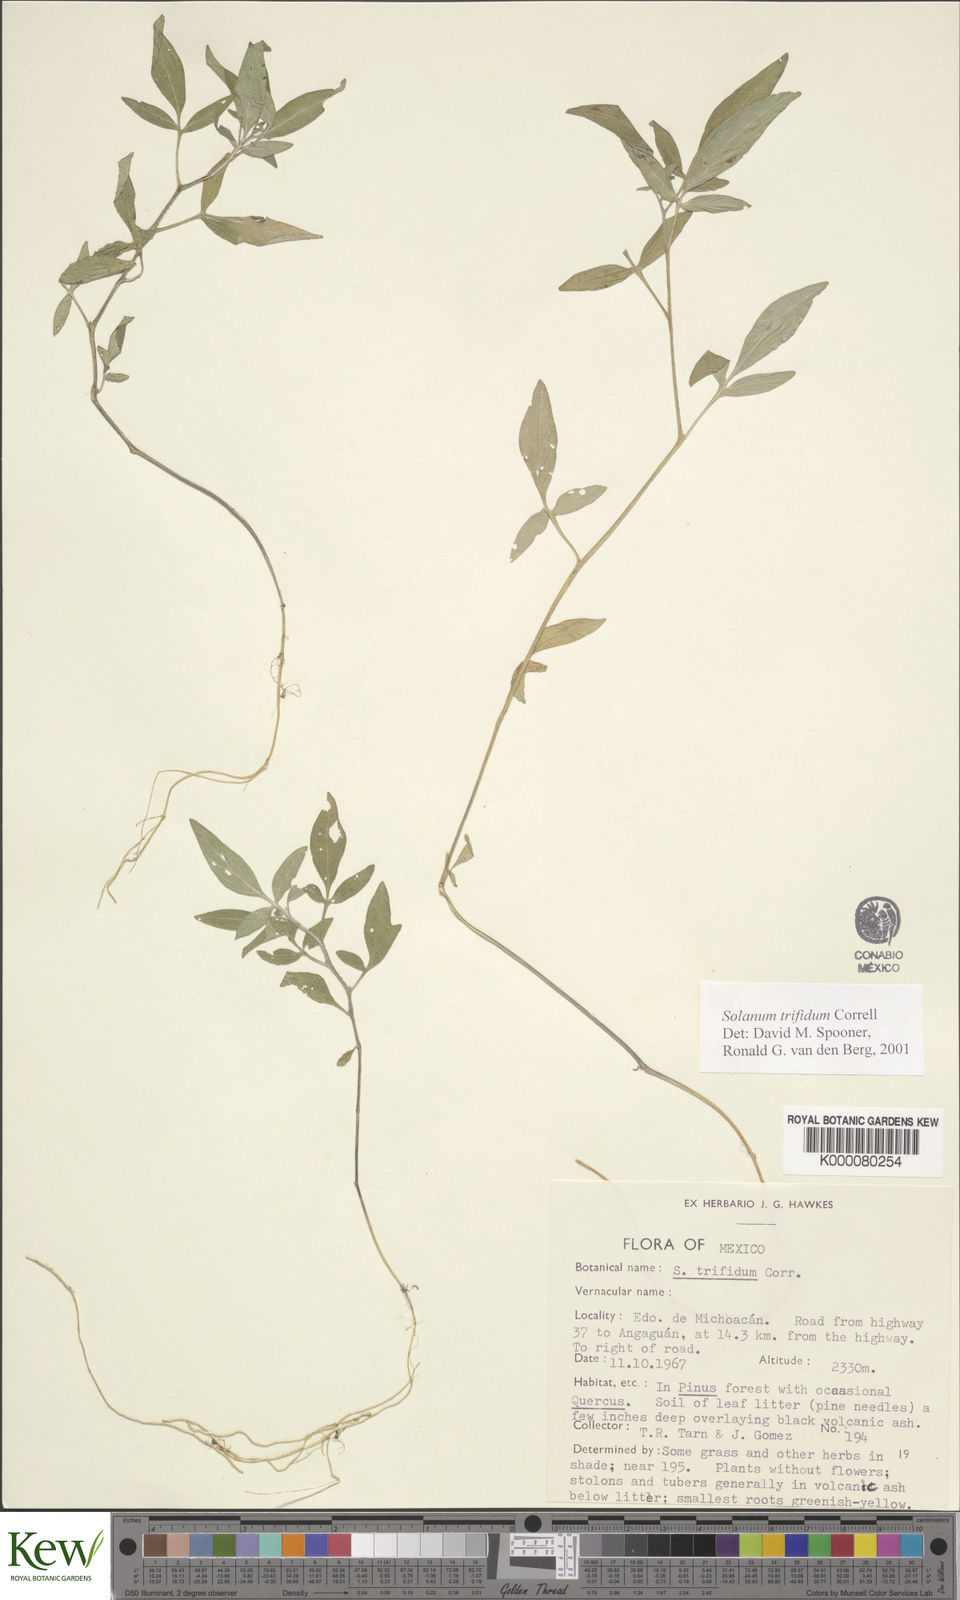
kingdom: Plantae
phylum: Tracheophyta
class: Magnoliopsida
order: Solanales
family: Solanaceae
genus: Solanum
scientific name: Solanum trifidum
